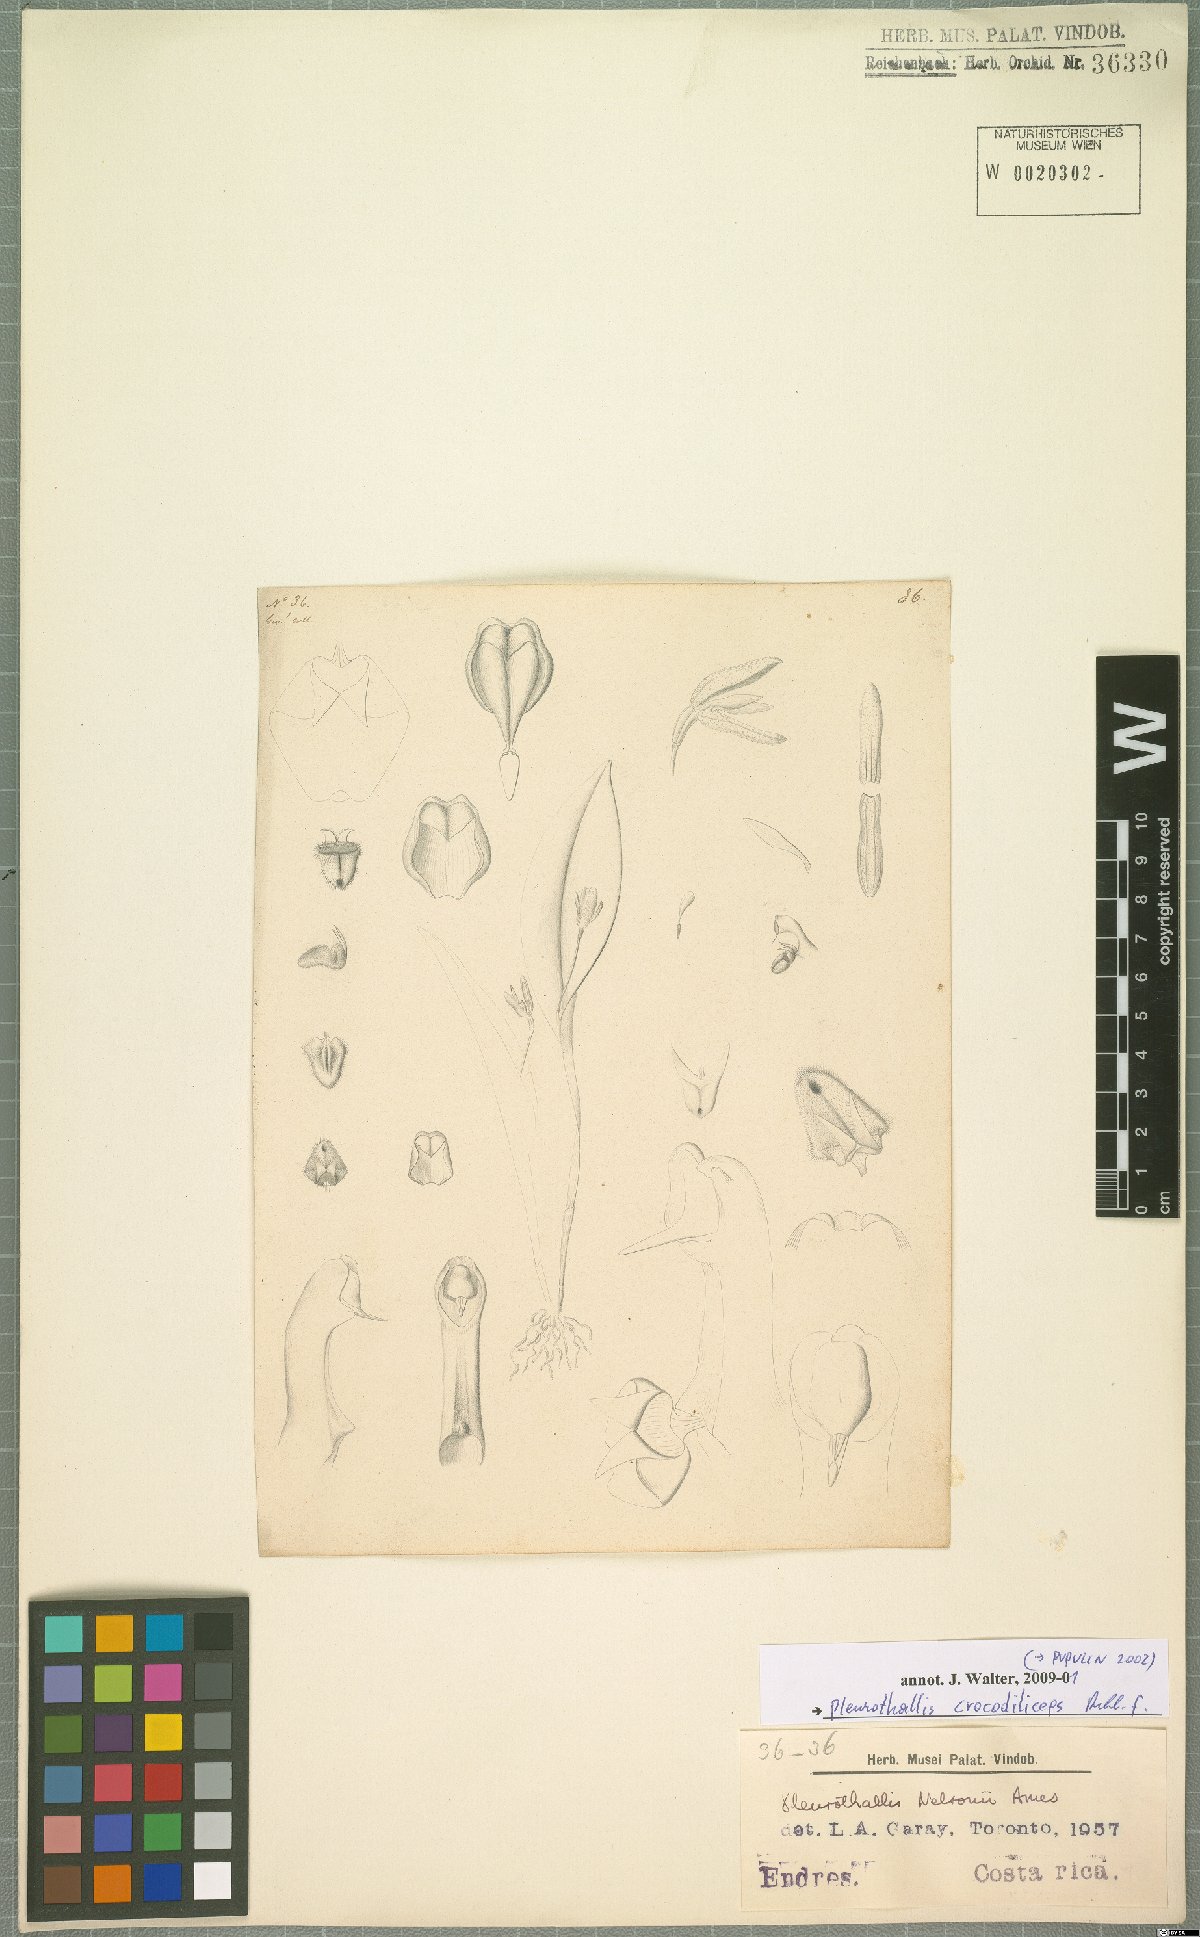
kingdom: Plantae
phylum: Tracheophyta
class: Liliopsida
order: Asparagales
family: Orchidaceae
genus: Pleurothallis
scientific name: Pleurothallis crocodiliceps
